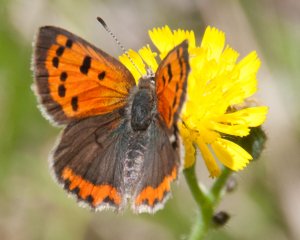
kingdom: Animalia
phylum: Arthropoda
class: Insecta
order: Lepidoptera
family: Lycaenidae
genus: Lycaena
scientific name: Lycaena phlaeas
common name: American Copper
